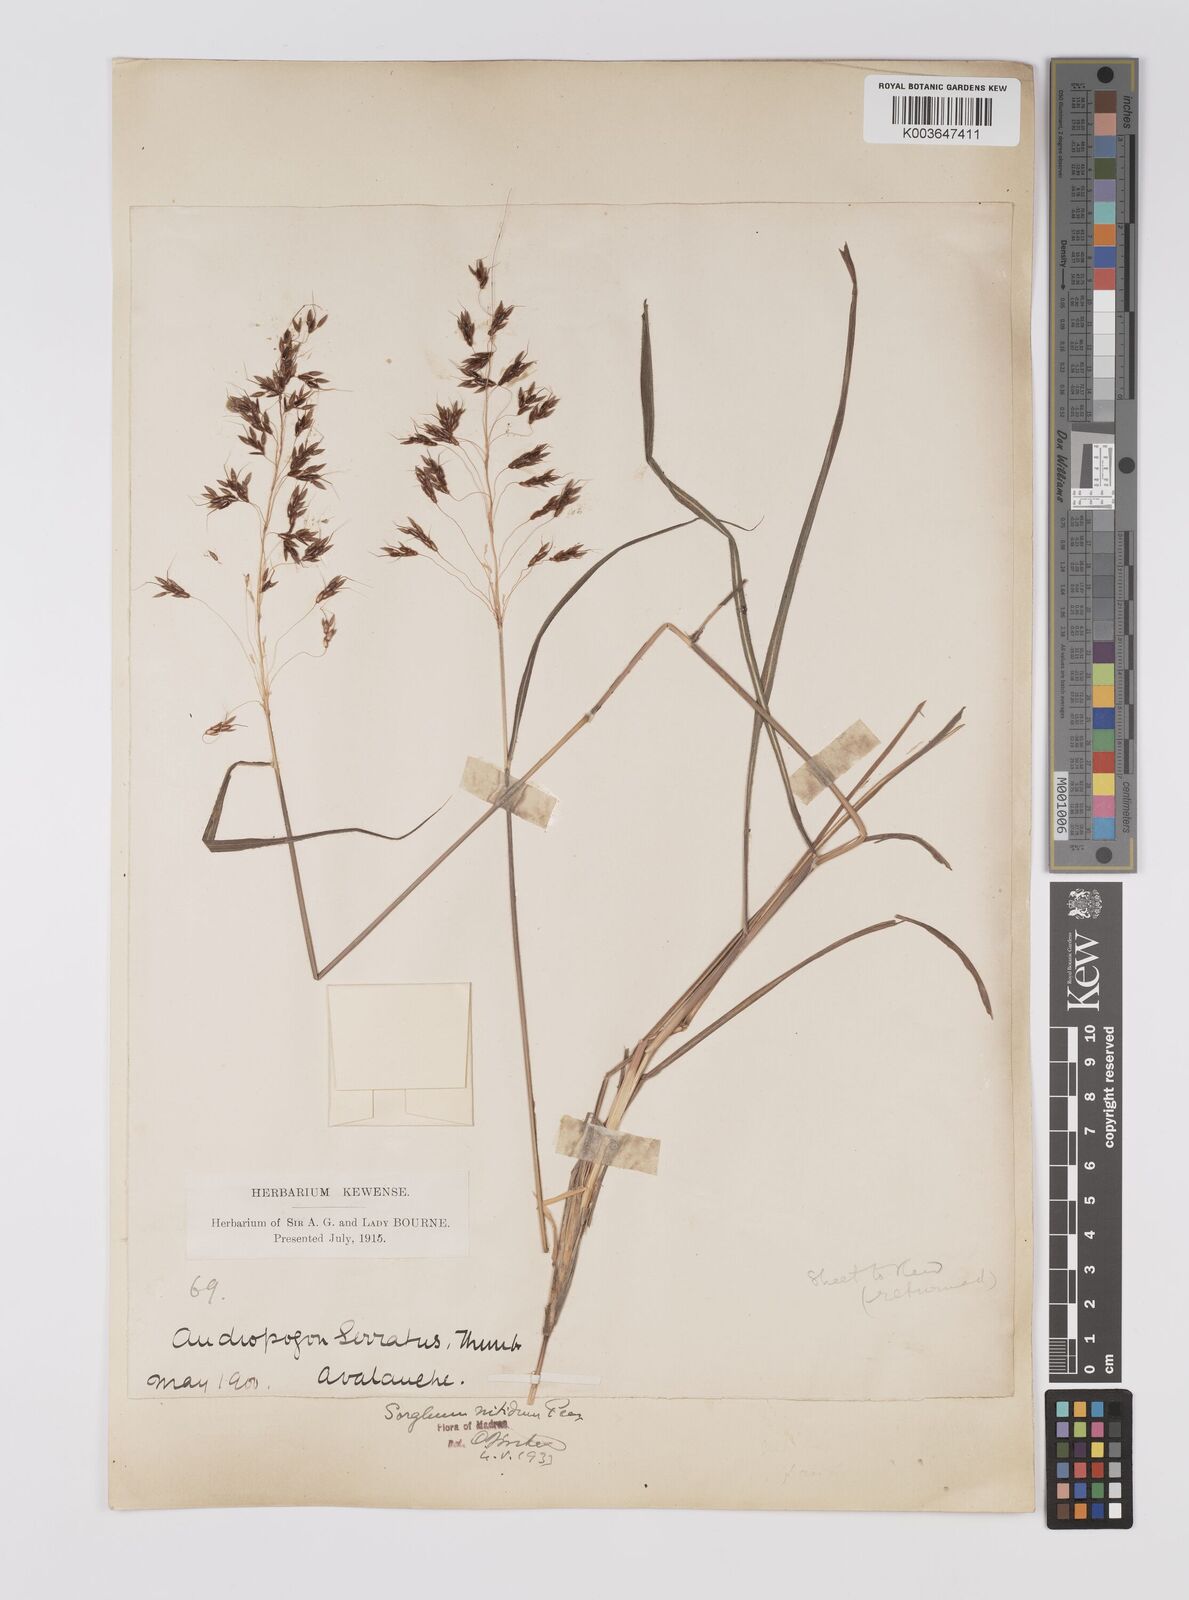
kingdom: Plantae
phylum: Tracheophyta
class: Liliopsida
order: Poales
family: Poaceae
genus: Sorghum
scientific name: Sorghum nitidum
